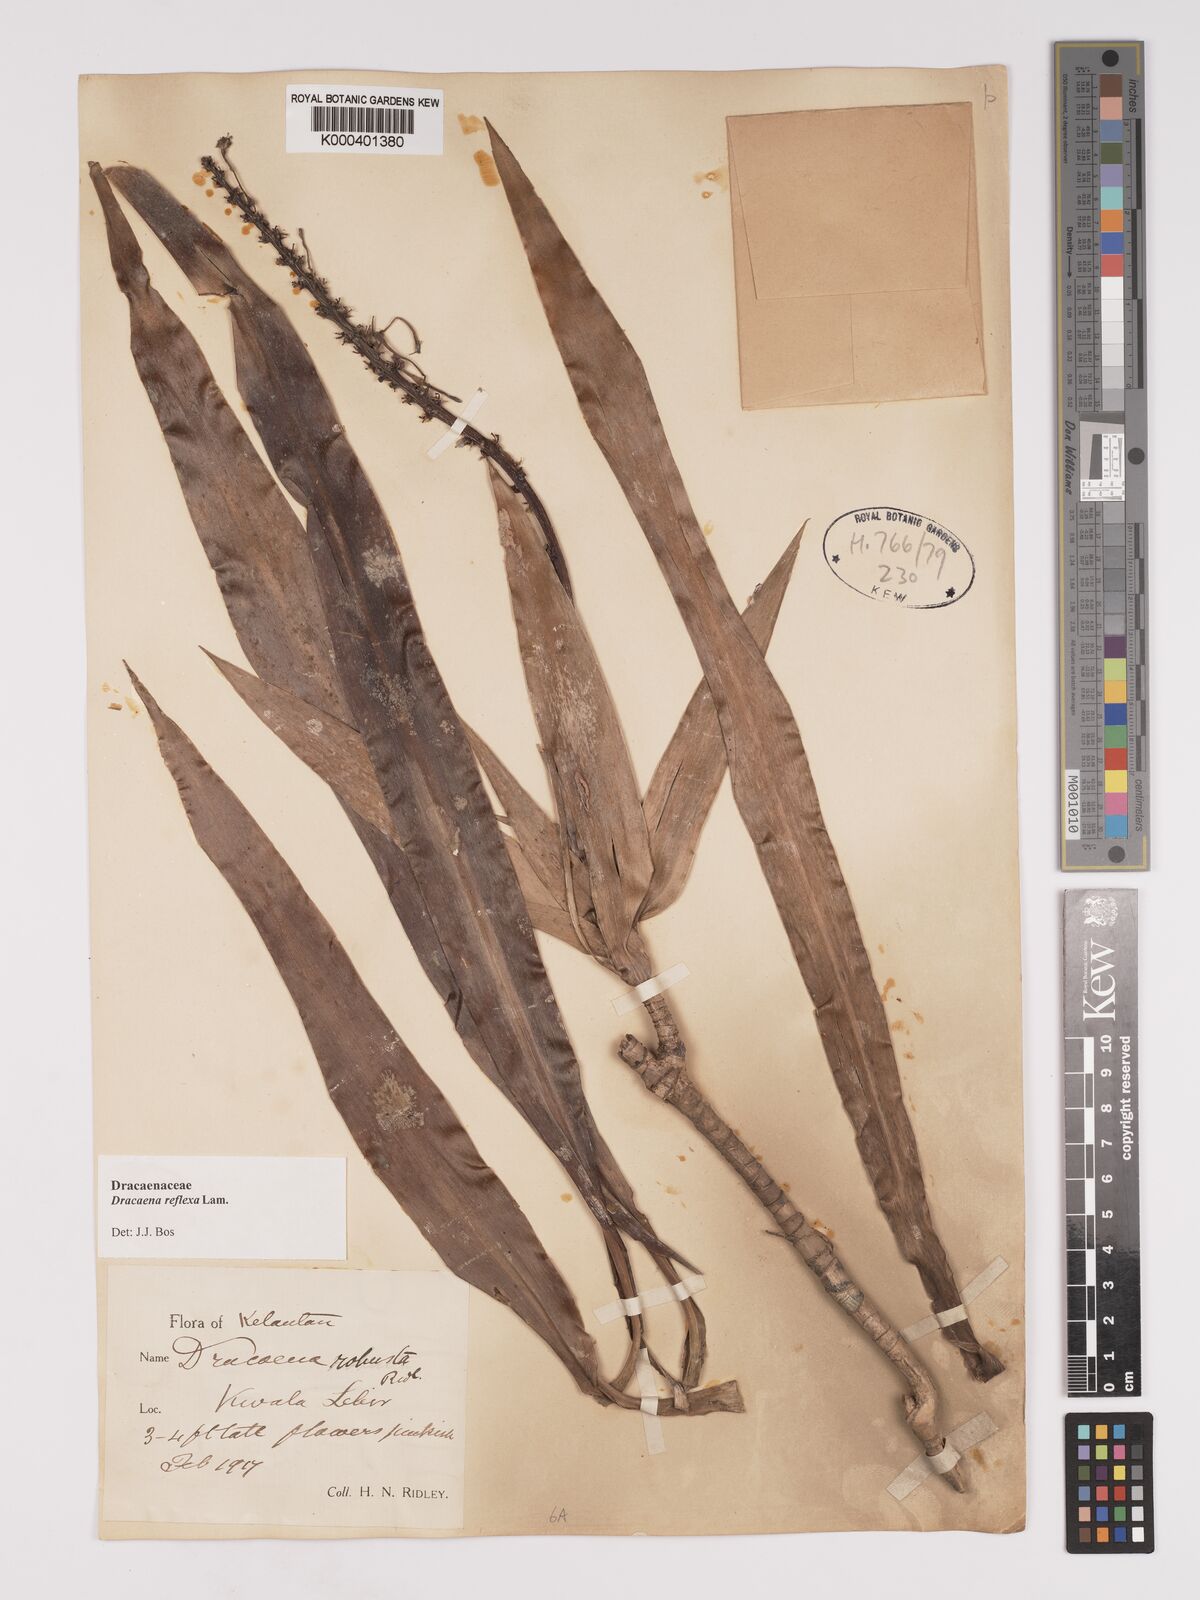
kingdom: Plantae
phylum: Tracheophyta
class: Liliopsida
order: Asparagales
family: Asparagaceae
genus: Dracaena
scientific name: Dracaena reflexa
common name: Song-of-india
